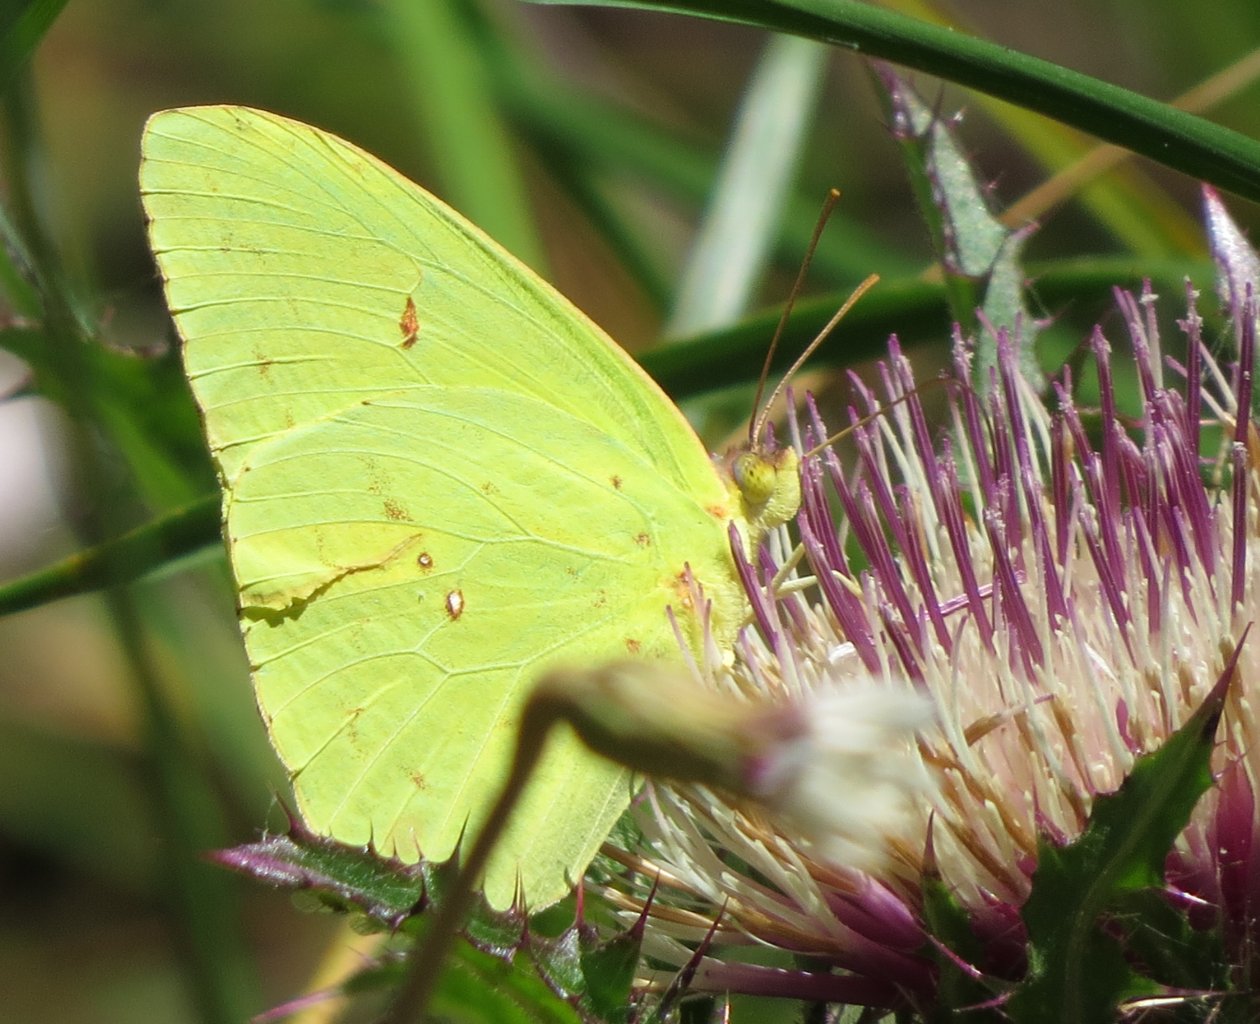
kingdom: Animalia
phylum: Arthropoda
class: Insecta
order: Lepidoptera
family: Pieridae
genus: Phoebis
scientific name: Phoebis sennae
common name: Cloudless Sulphur
